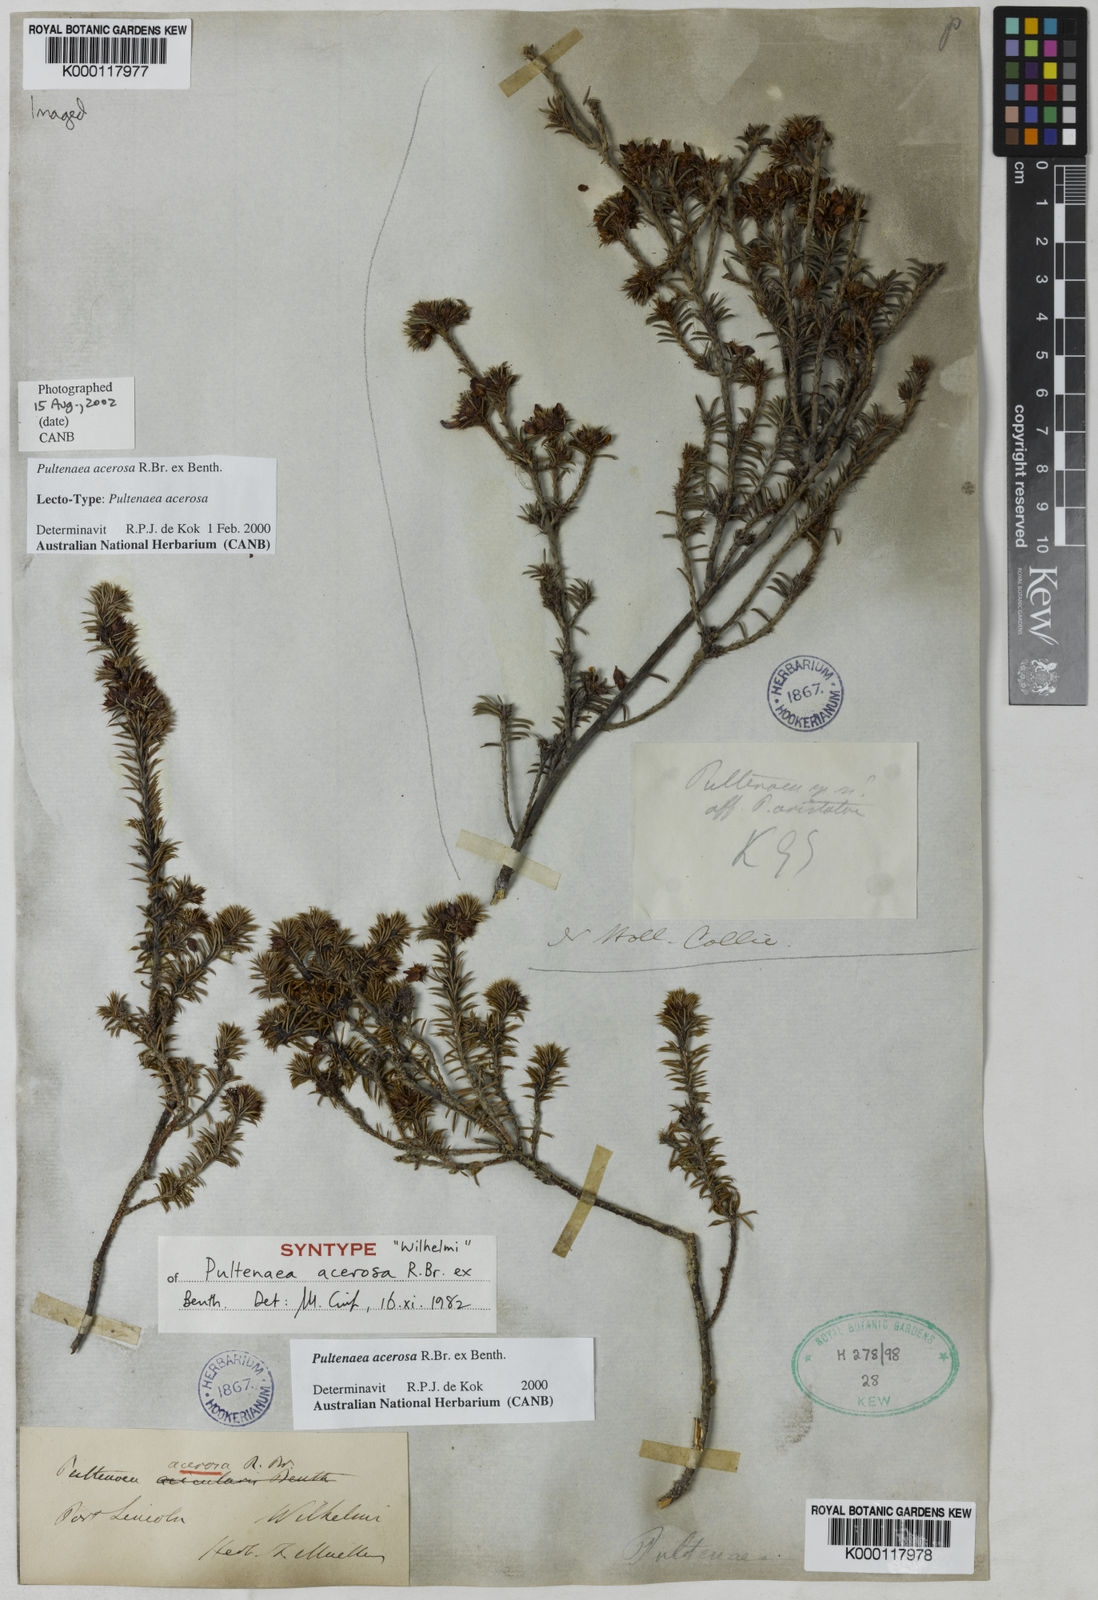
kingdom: Plantae
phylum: Tracheophyta
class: Magnoliopsida
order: Fabales
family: Fabaceae
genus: Pultenaea
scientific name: Pultenaea acerosa
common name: Bristly bush-pea
